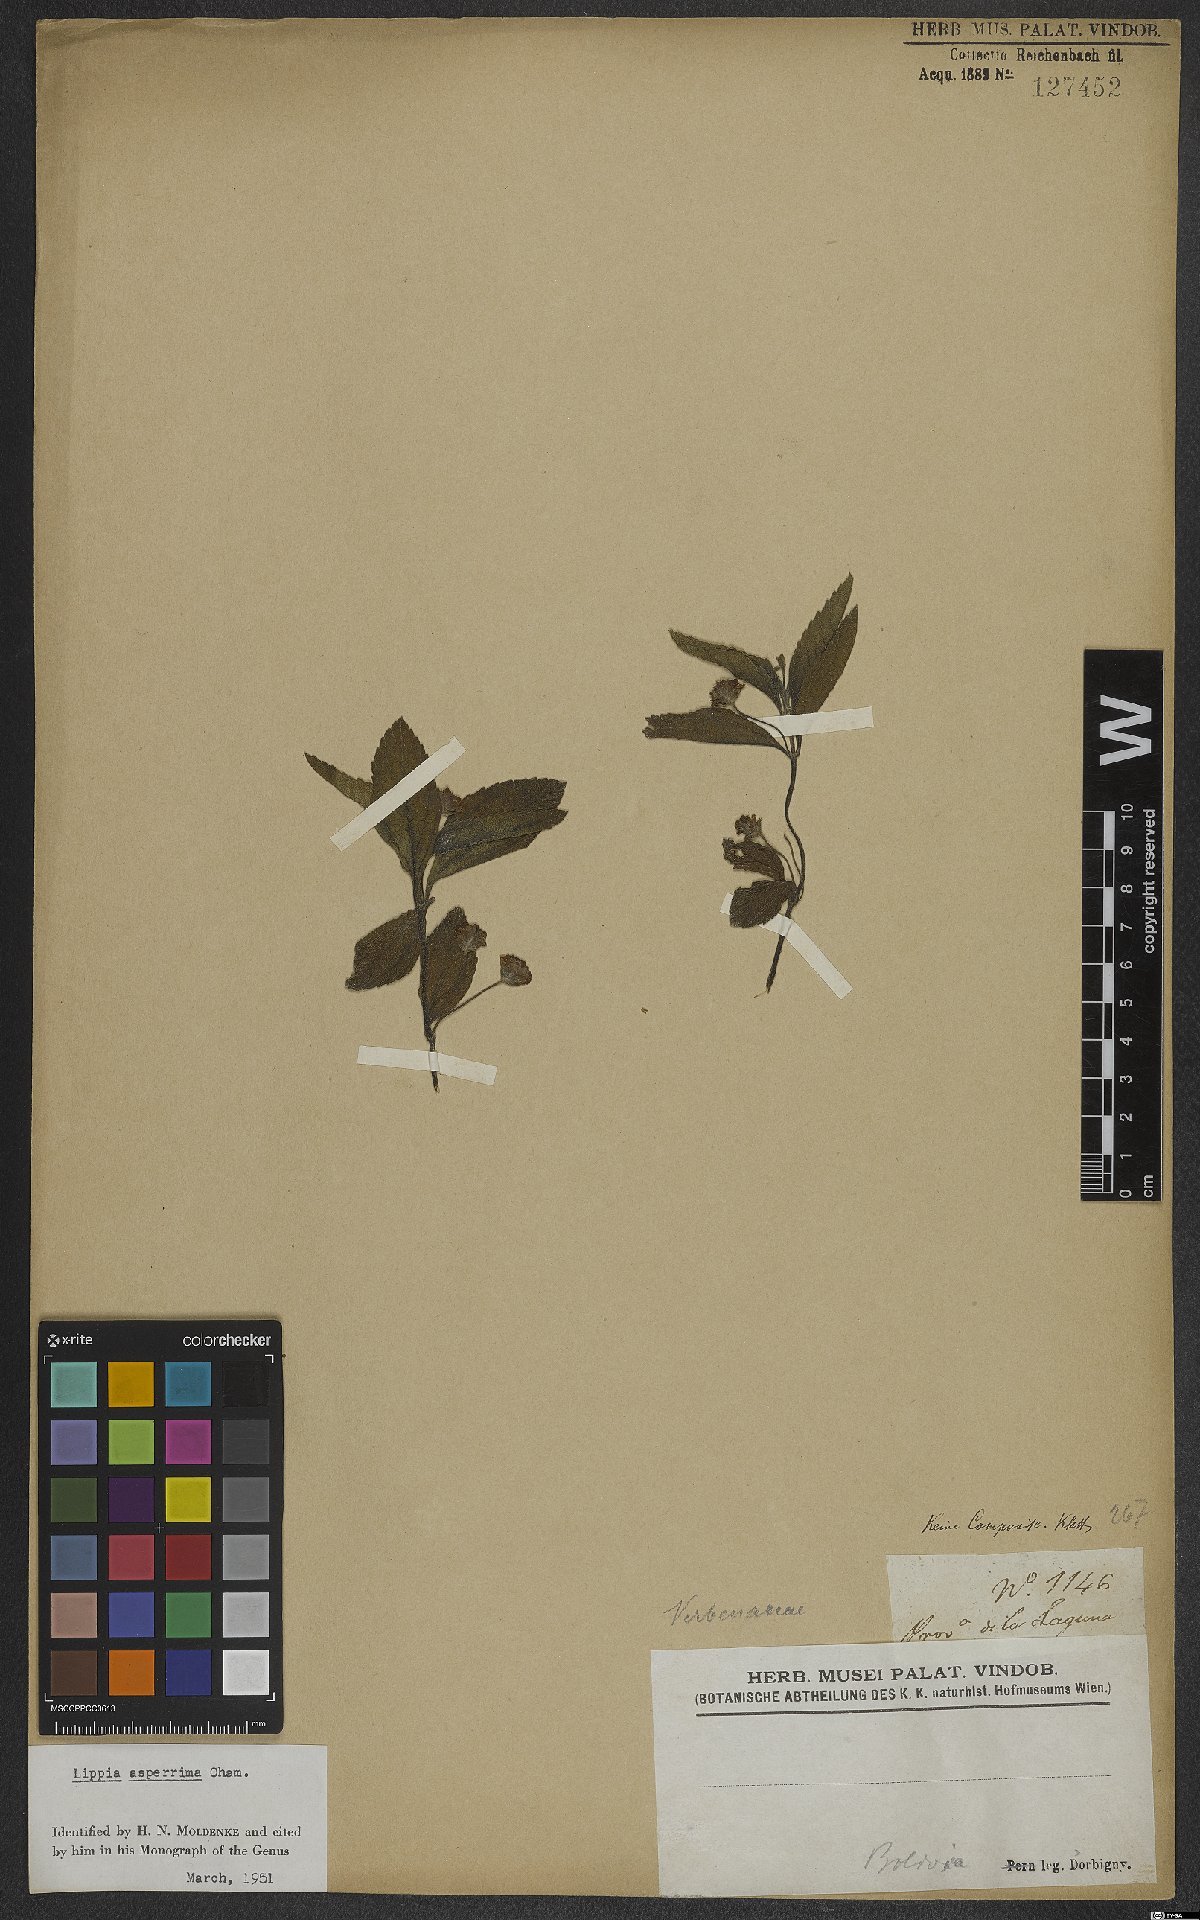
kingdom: Plantae
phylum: Tracheophyta
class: Magnoliopsida
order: Lamiales
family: Verbenaceae
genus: Lippia
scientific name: Lippia asperrima
